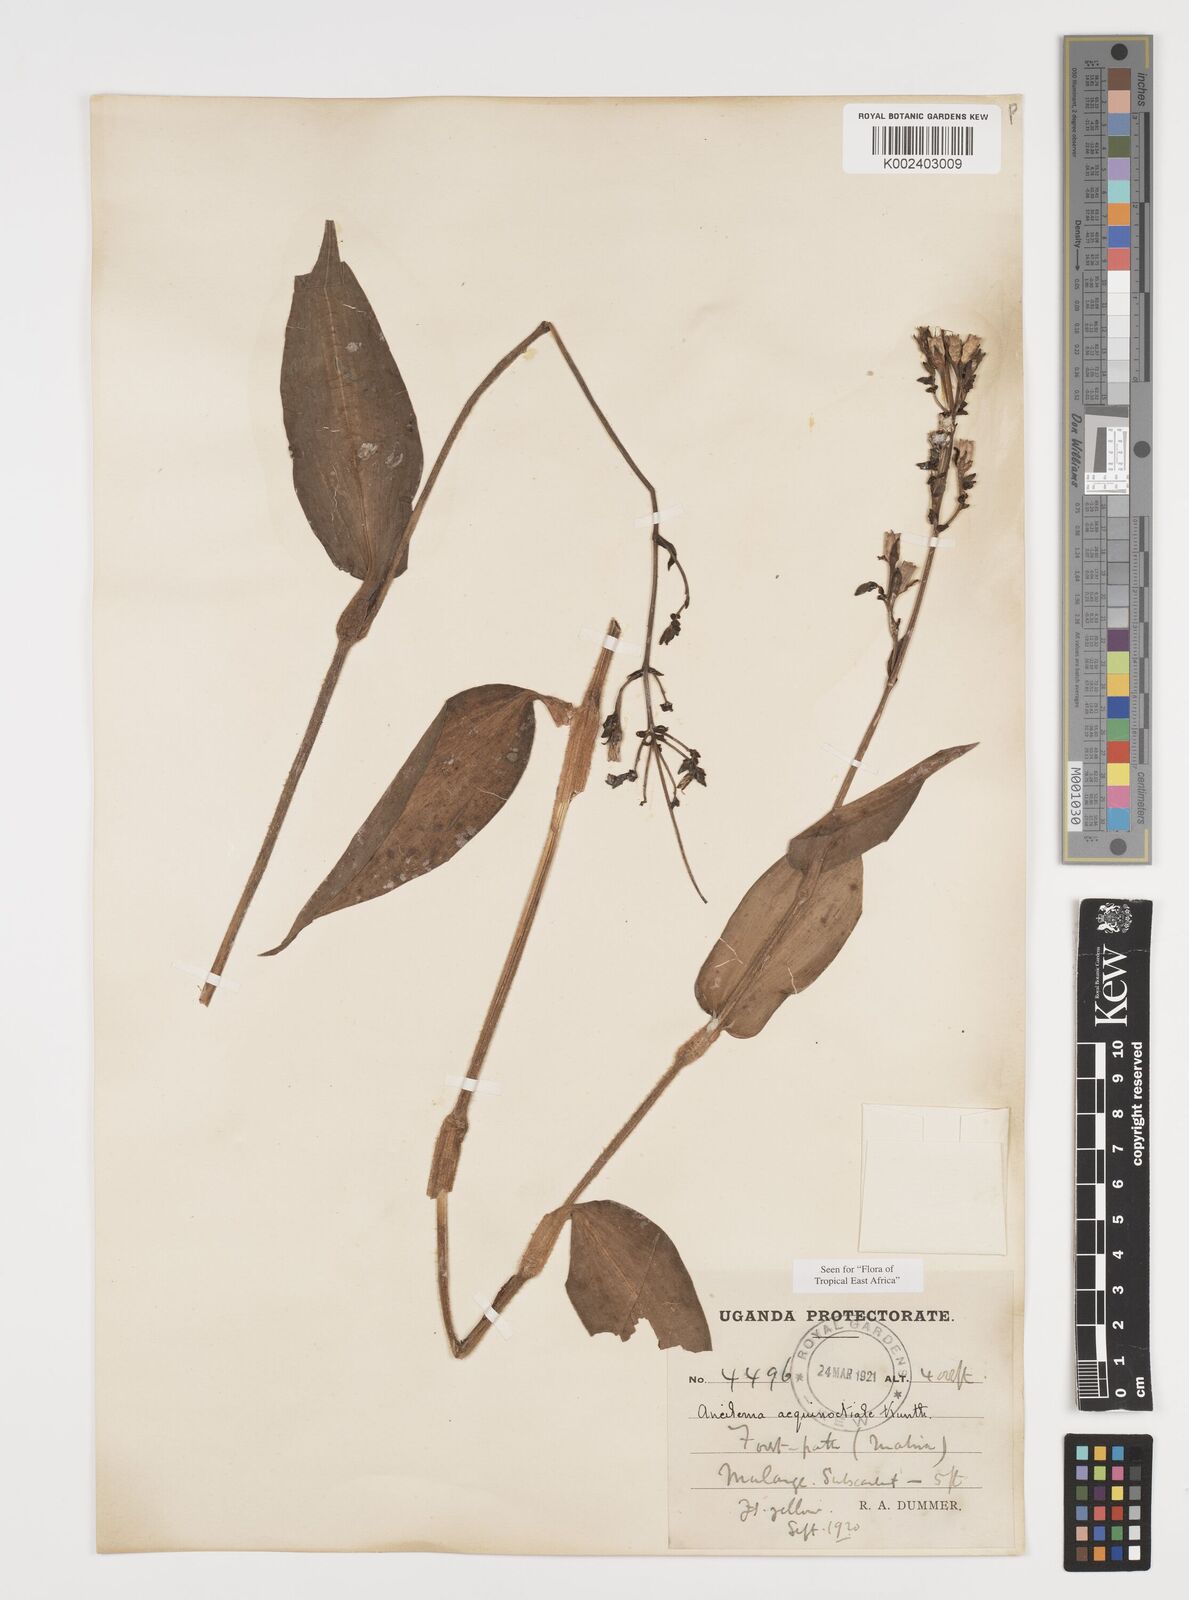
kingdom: Plantae
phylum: Tracheophyta
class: Liliopsida
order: Commelinales
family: Commelinaceae
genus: Aneilema
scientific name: Aneilema aequinoctiale
